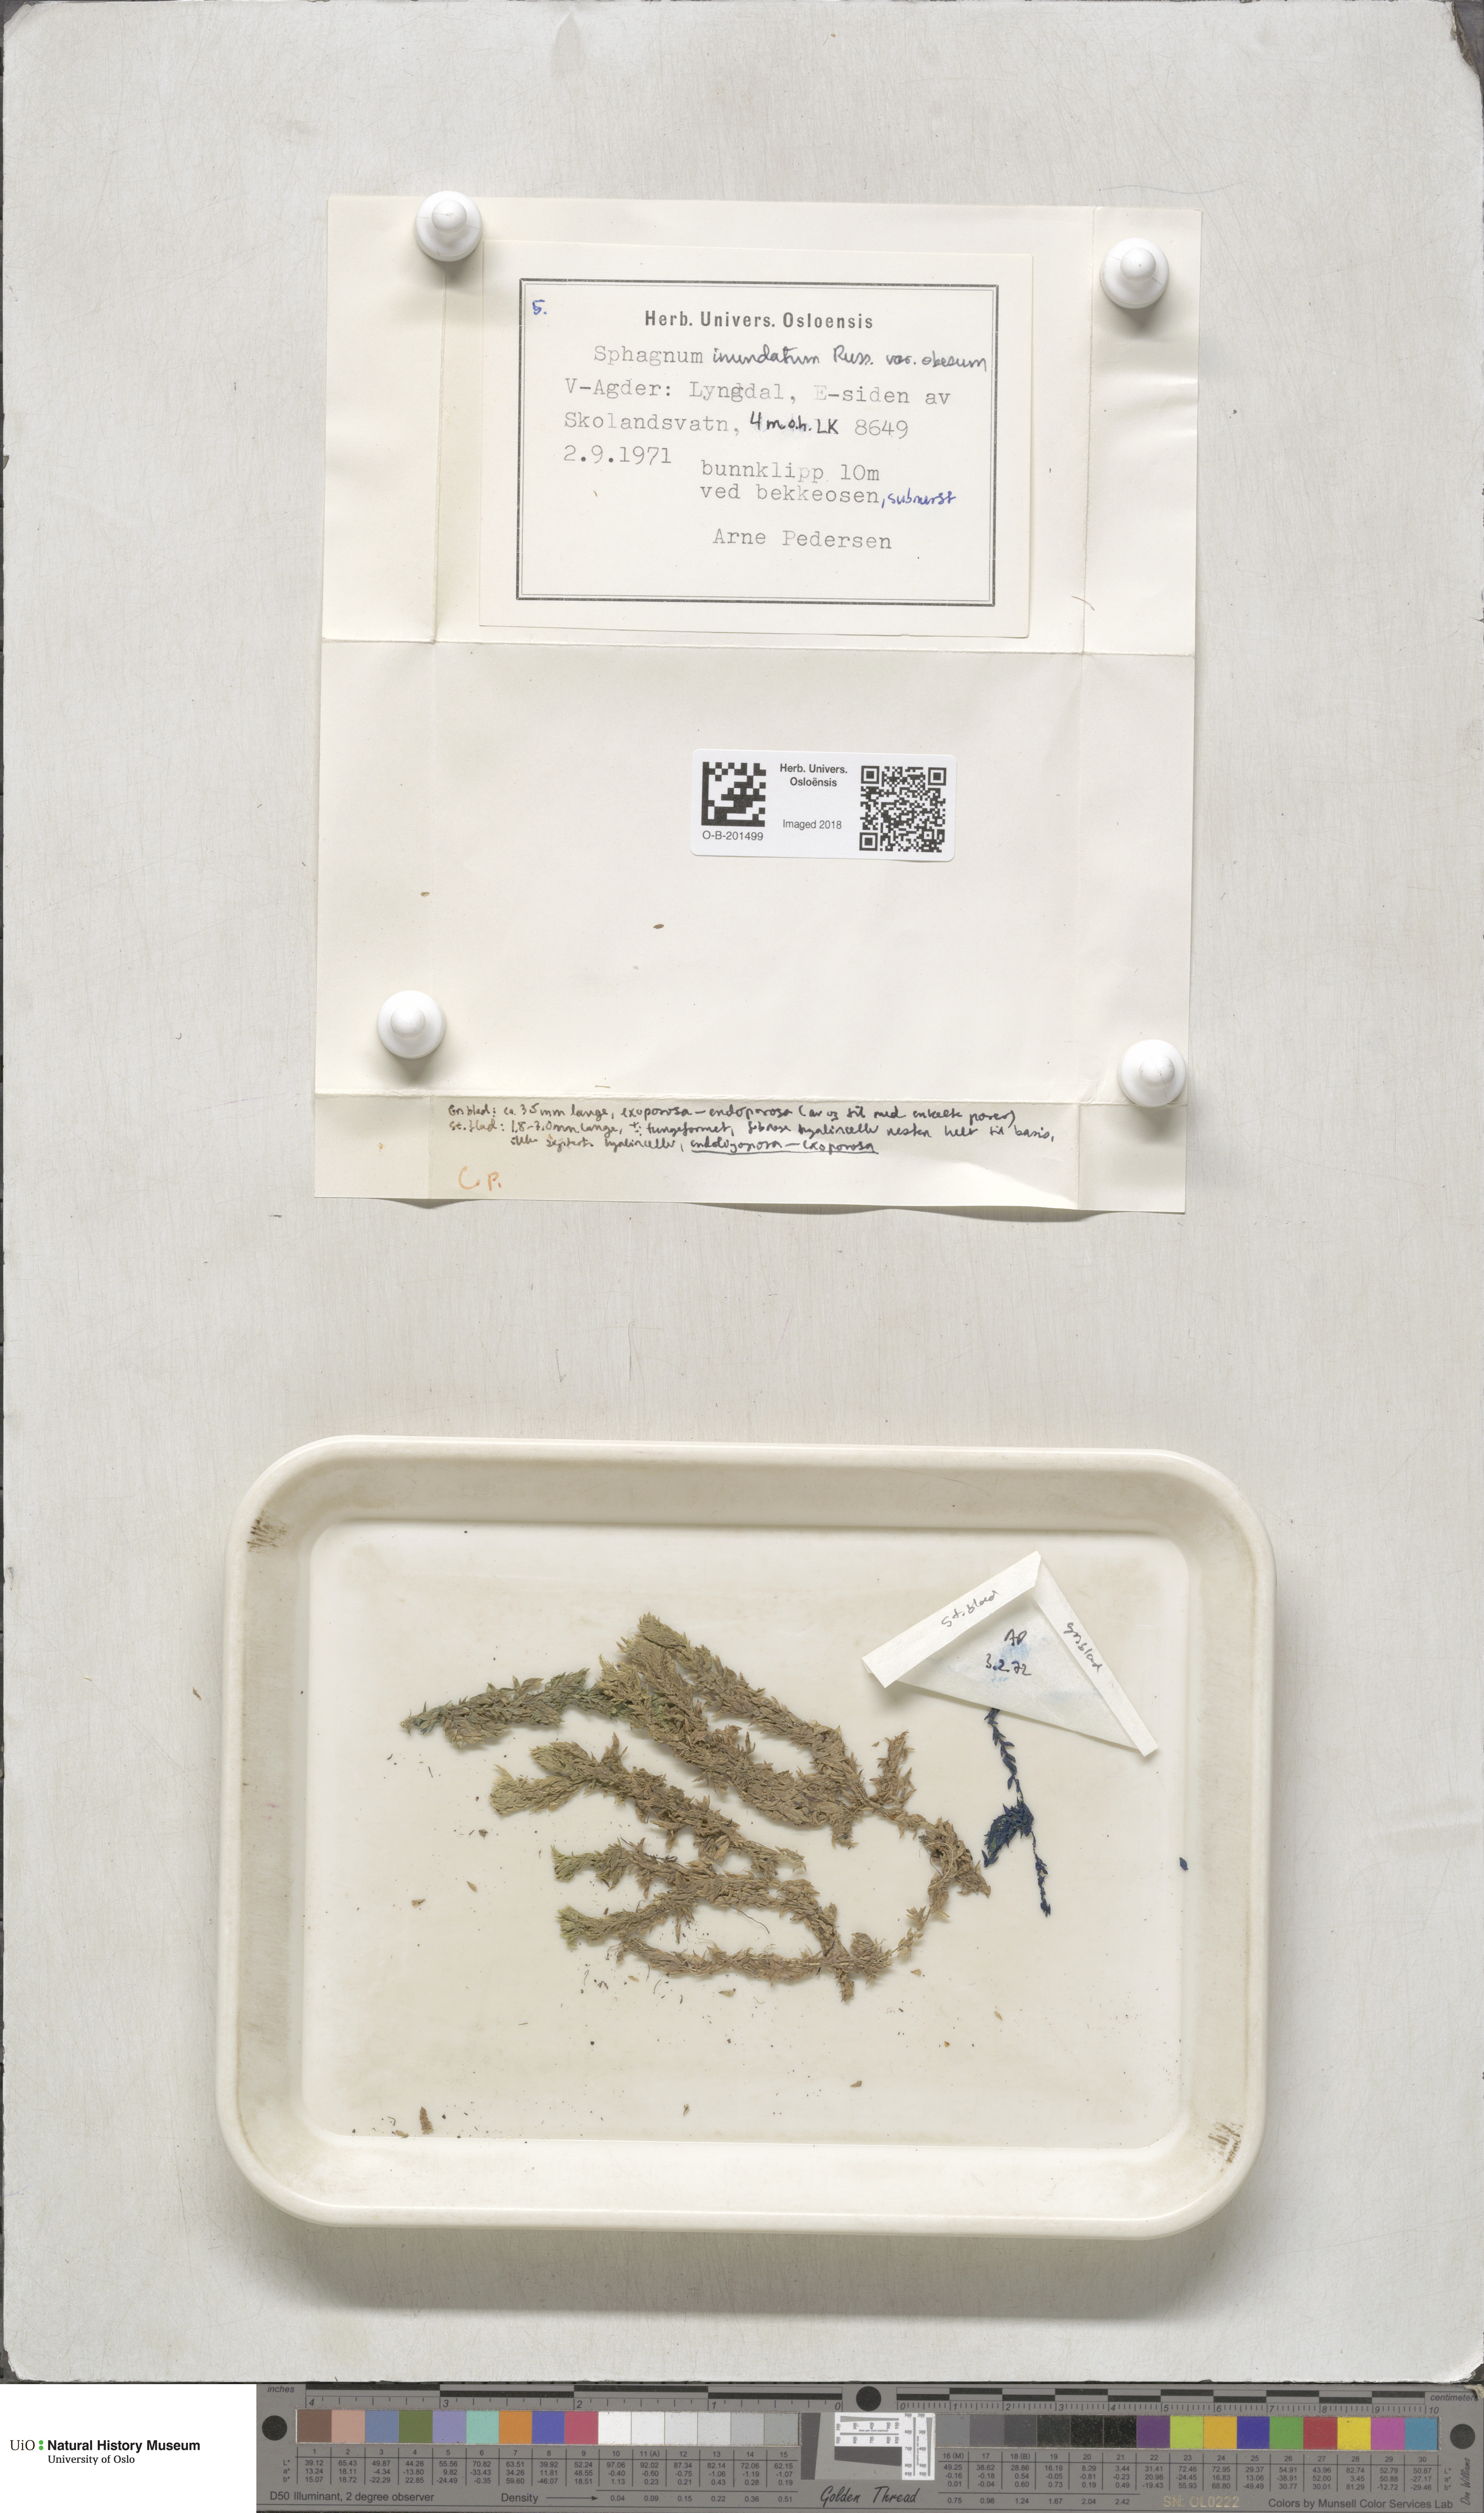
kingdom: Plantae
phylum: Bryophyta
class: Sphagnopsida
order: Sphagnales
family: Sphagnaceae
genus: Sphagnum
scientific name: Sphagnum inundatum
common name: Lesser cow-horn bog-moss
